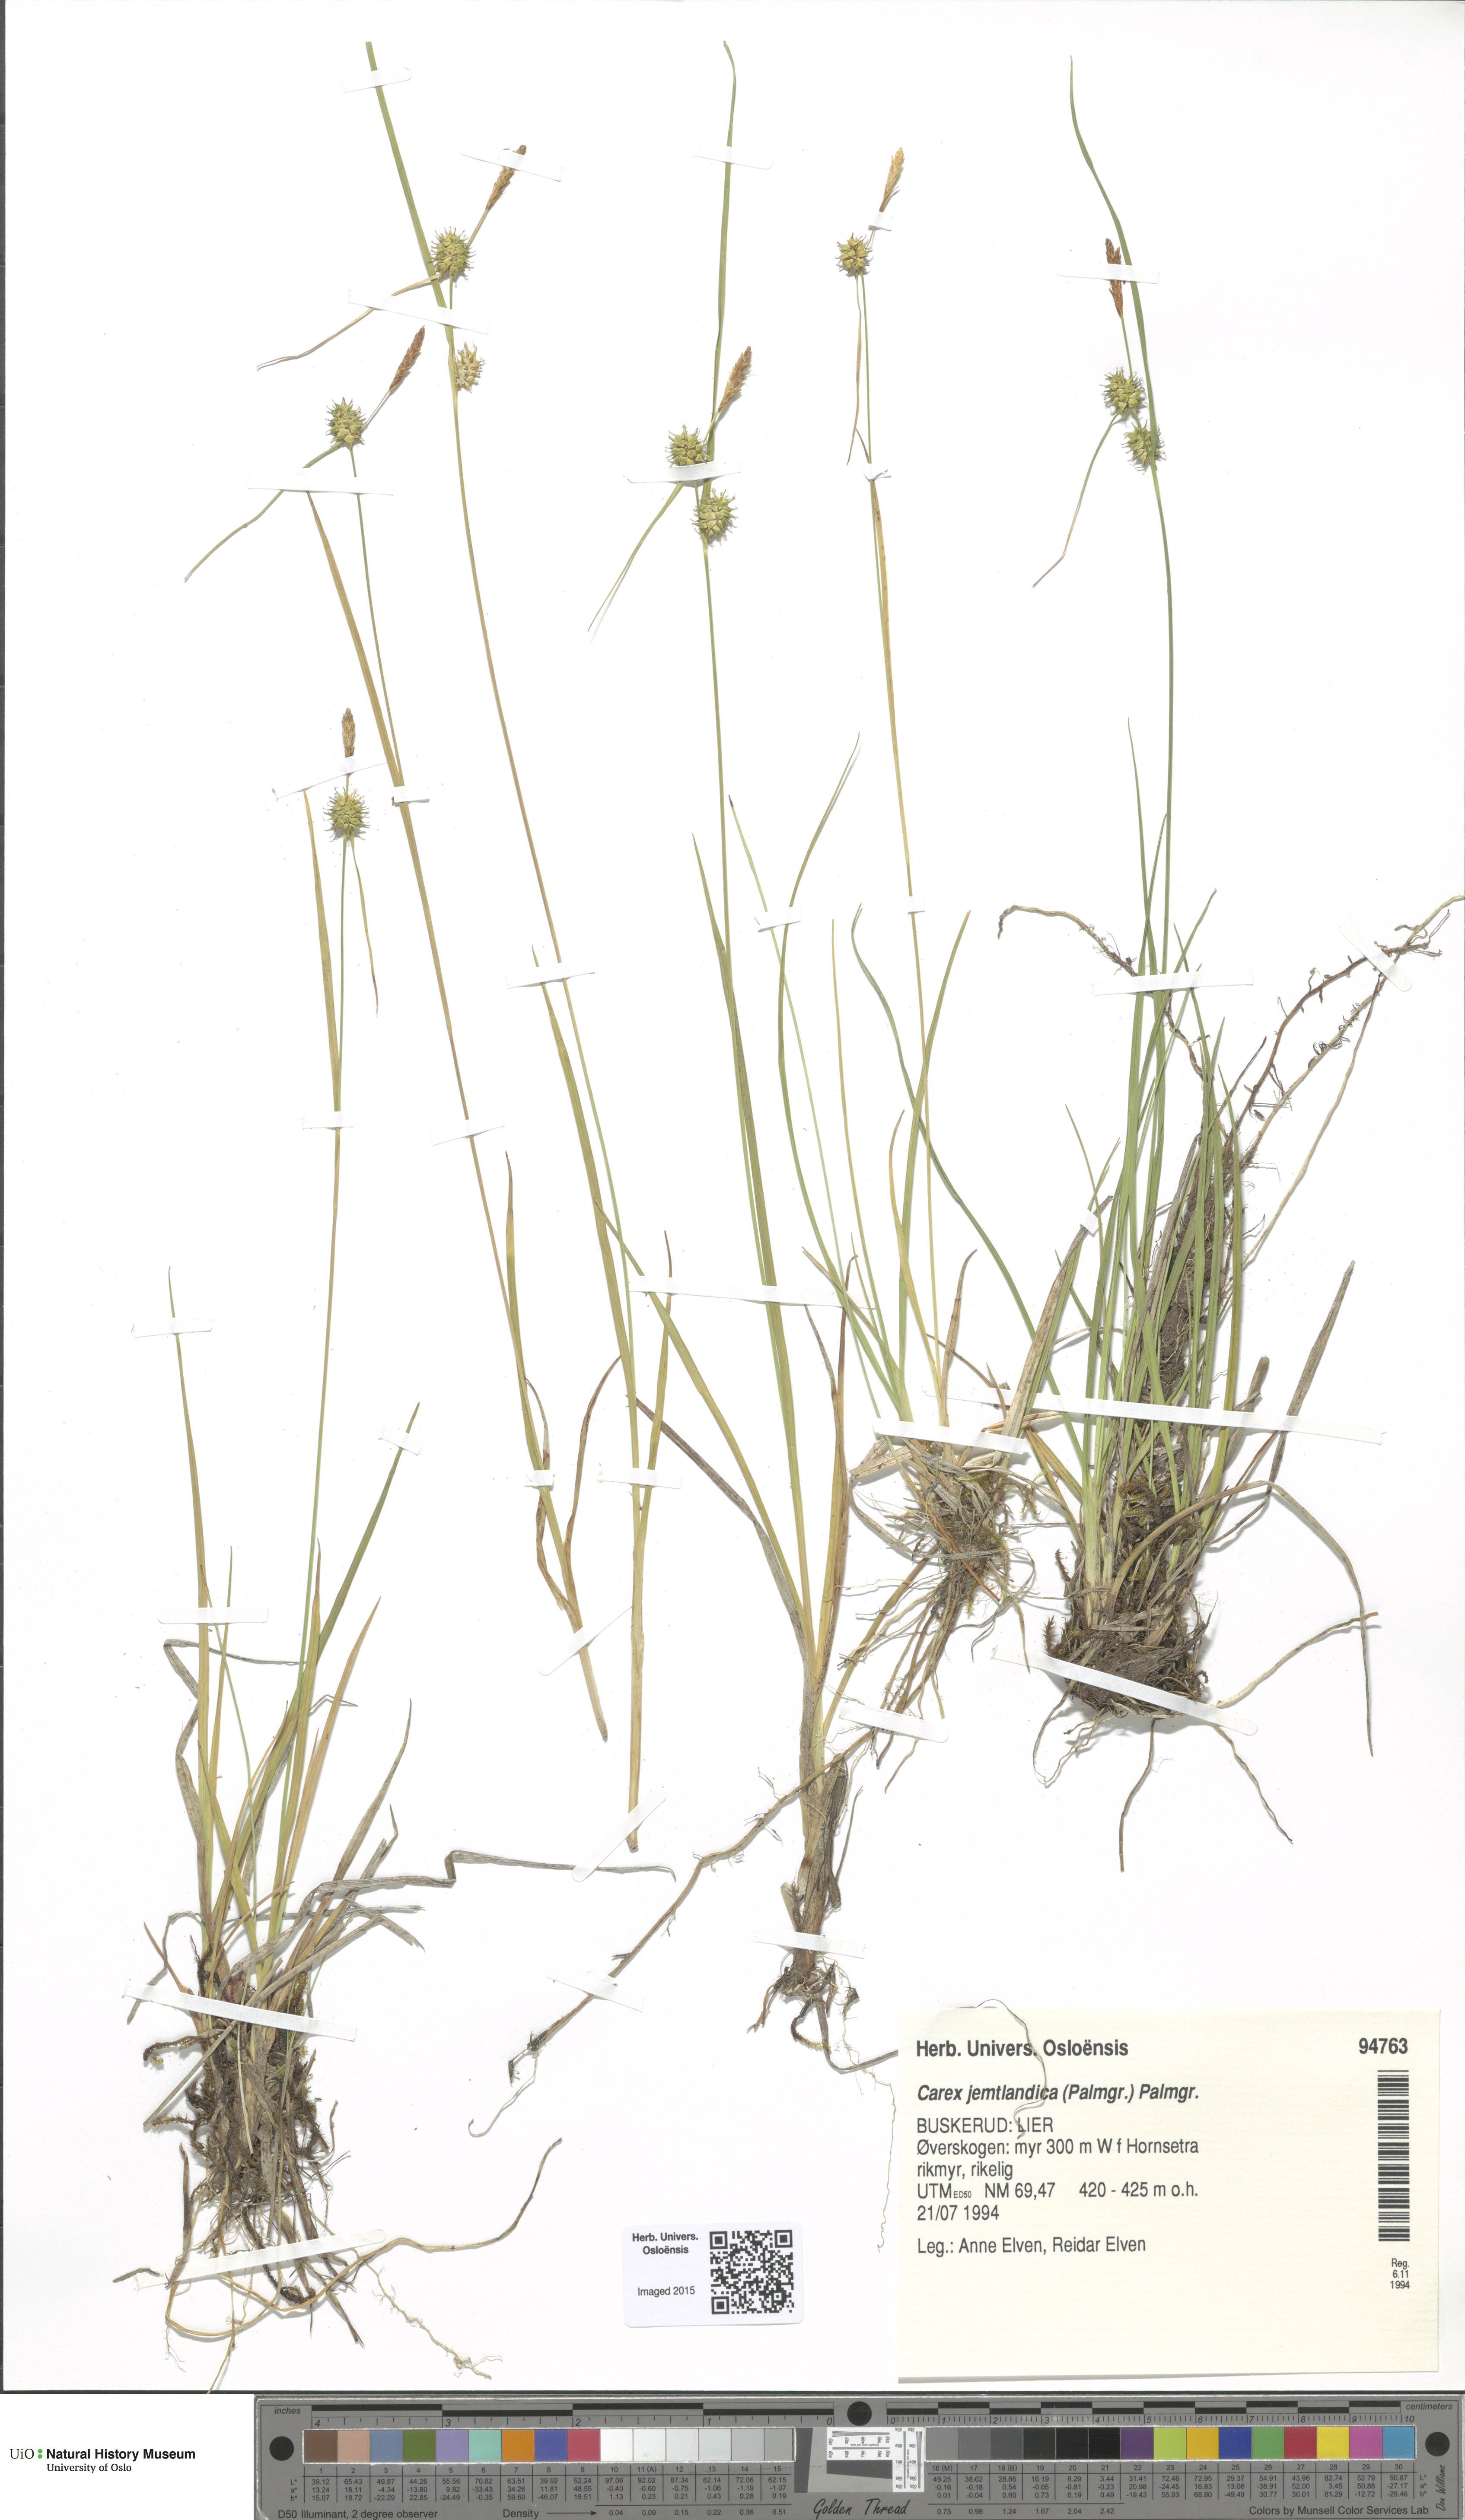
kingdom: Plantae
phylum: Tracheophyta
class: Liliopsida
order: Poales
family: Cyperaceae
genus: Carex
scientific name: Carex lepidocarpa
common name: Long-stalked yellow-sedge
